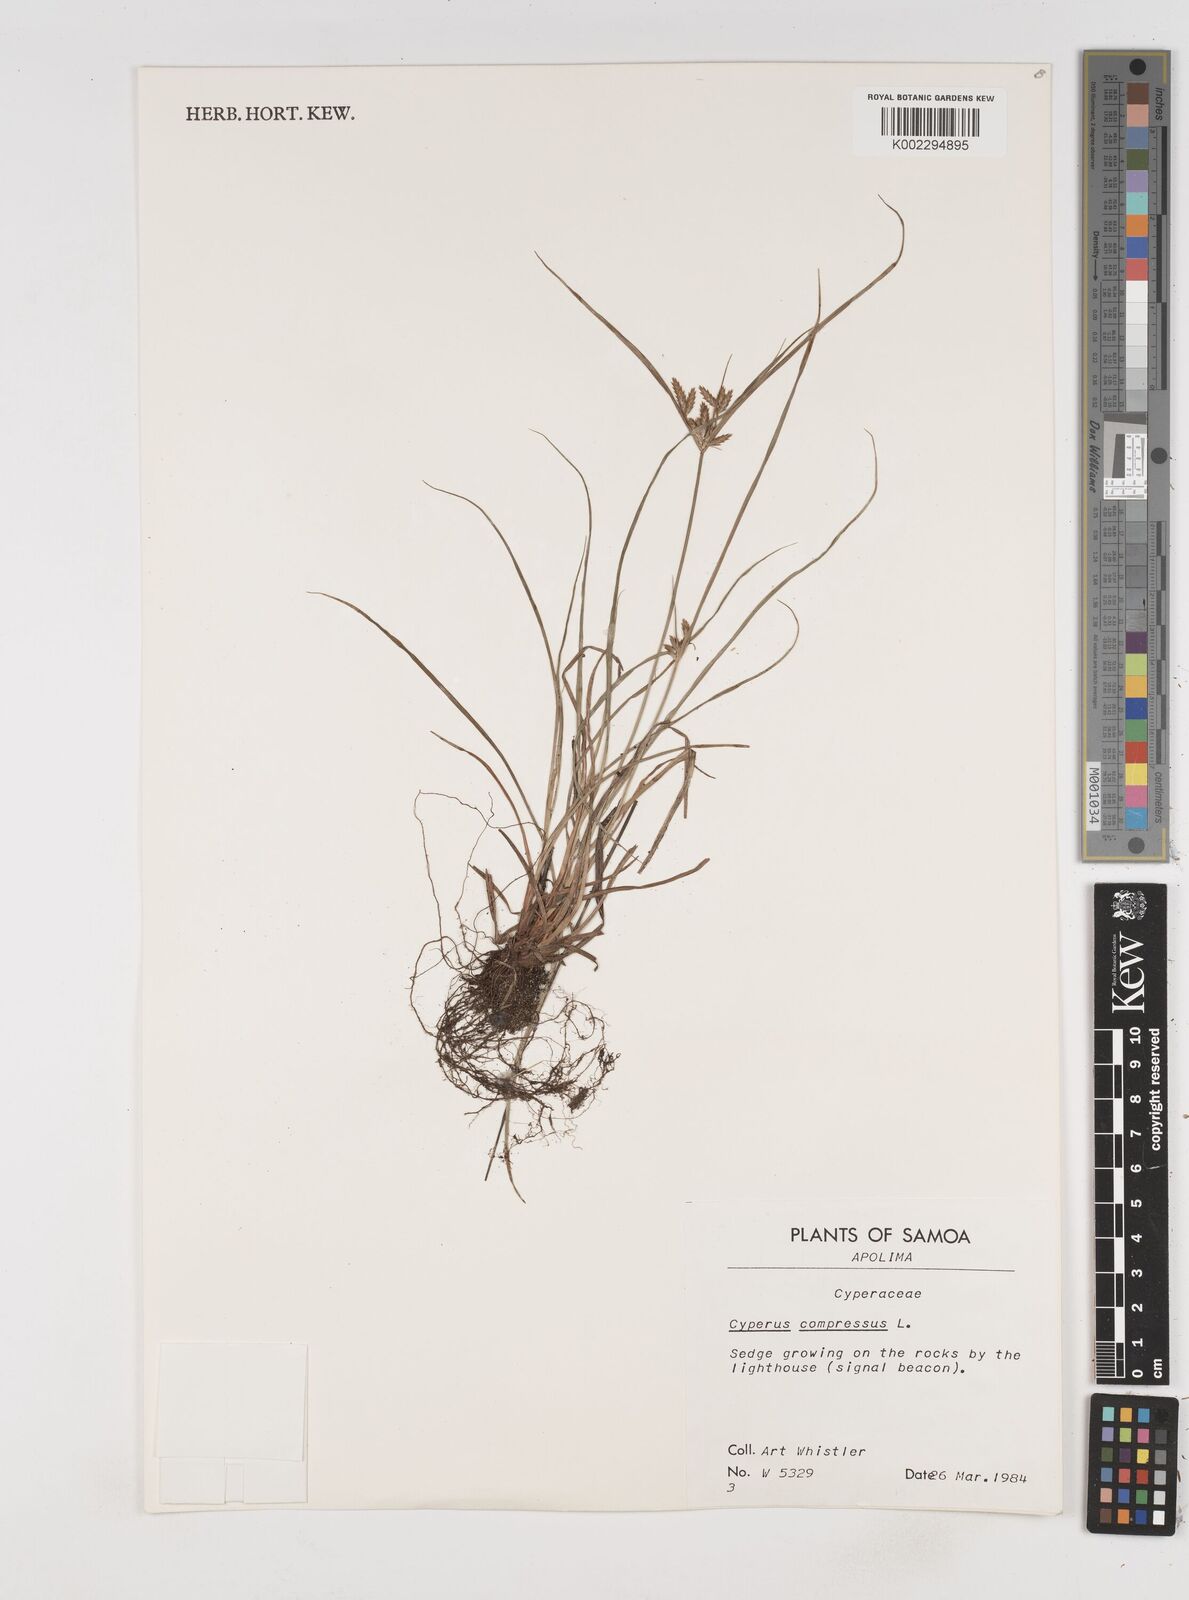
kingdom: Plantae
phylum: Tracheophyta
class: Liliopsida
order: Poales
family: Cyperaceae
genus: Cyperus
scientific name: Cyperus compressus
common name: Poorland flatsedge
